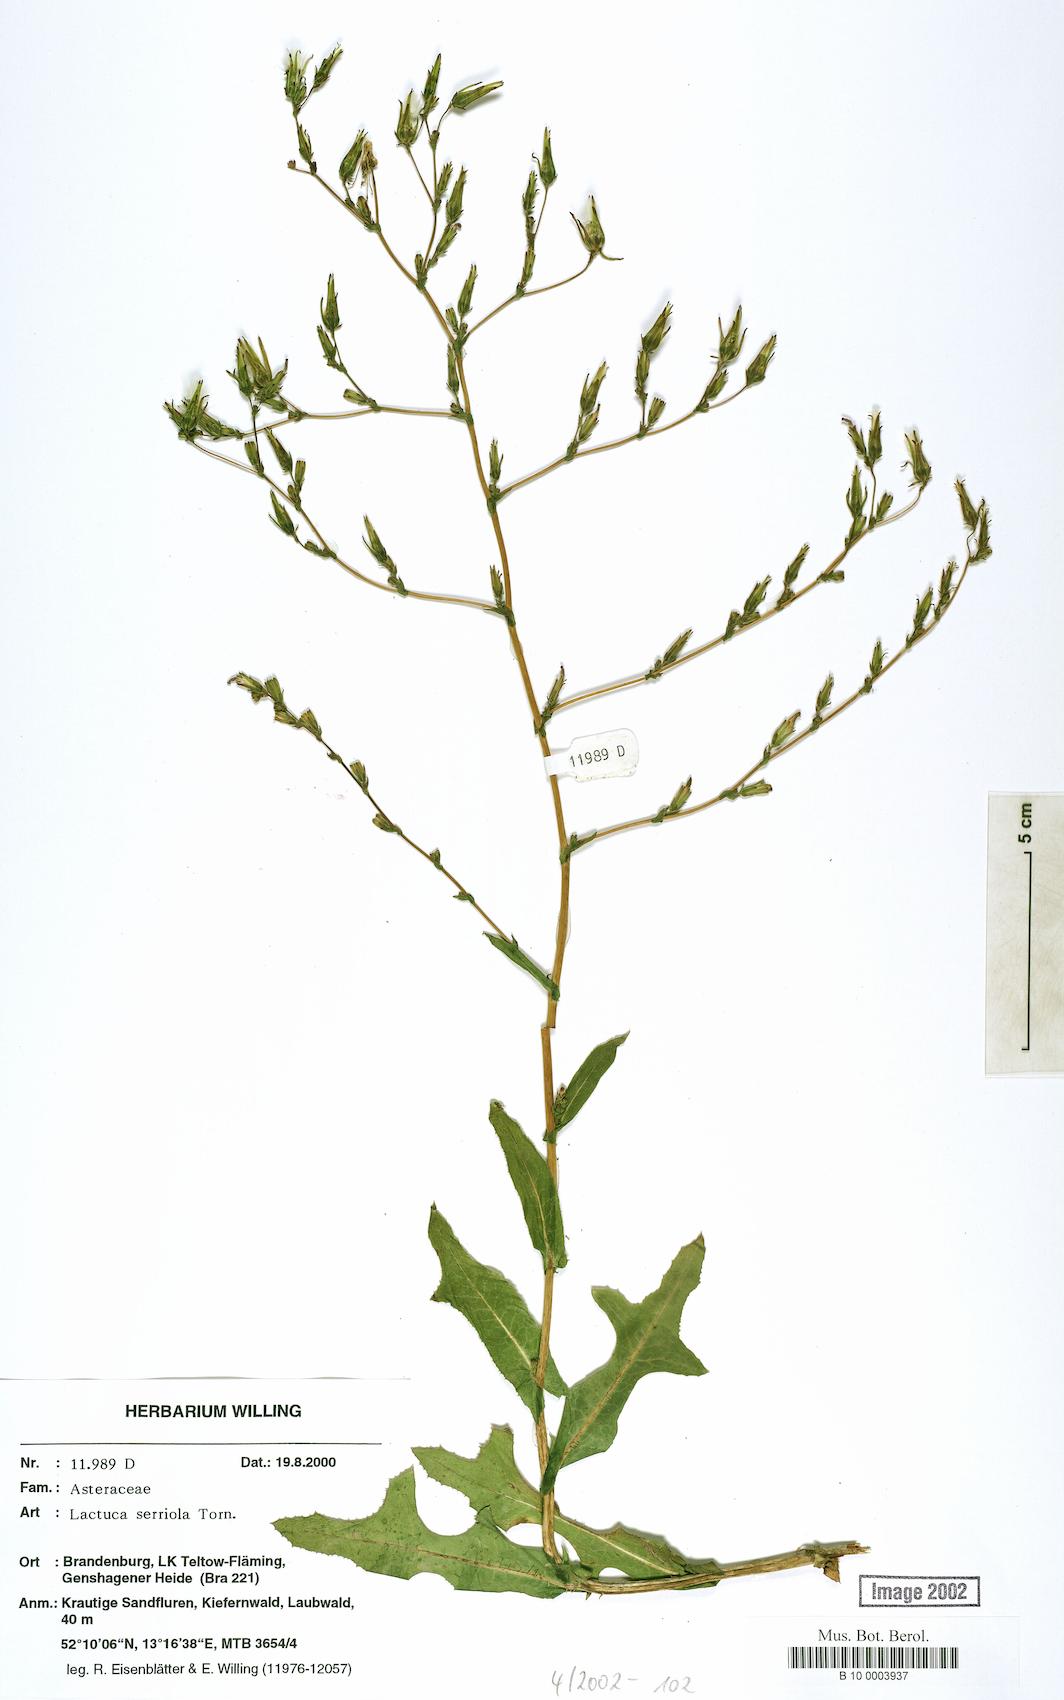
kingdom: Plantae
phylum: Tracheophyta
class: Magnoliopsida
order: Asterales
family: Asteraceae
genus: Lactuca
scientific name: Lactuca serriola
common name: Prickly lettuce
